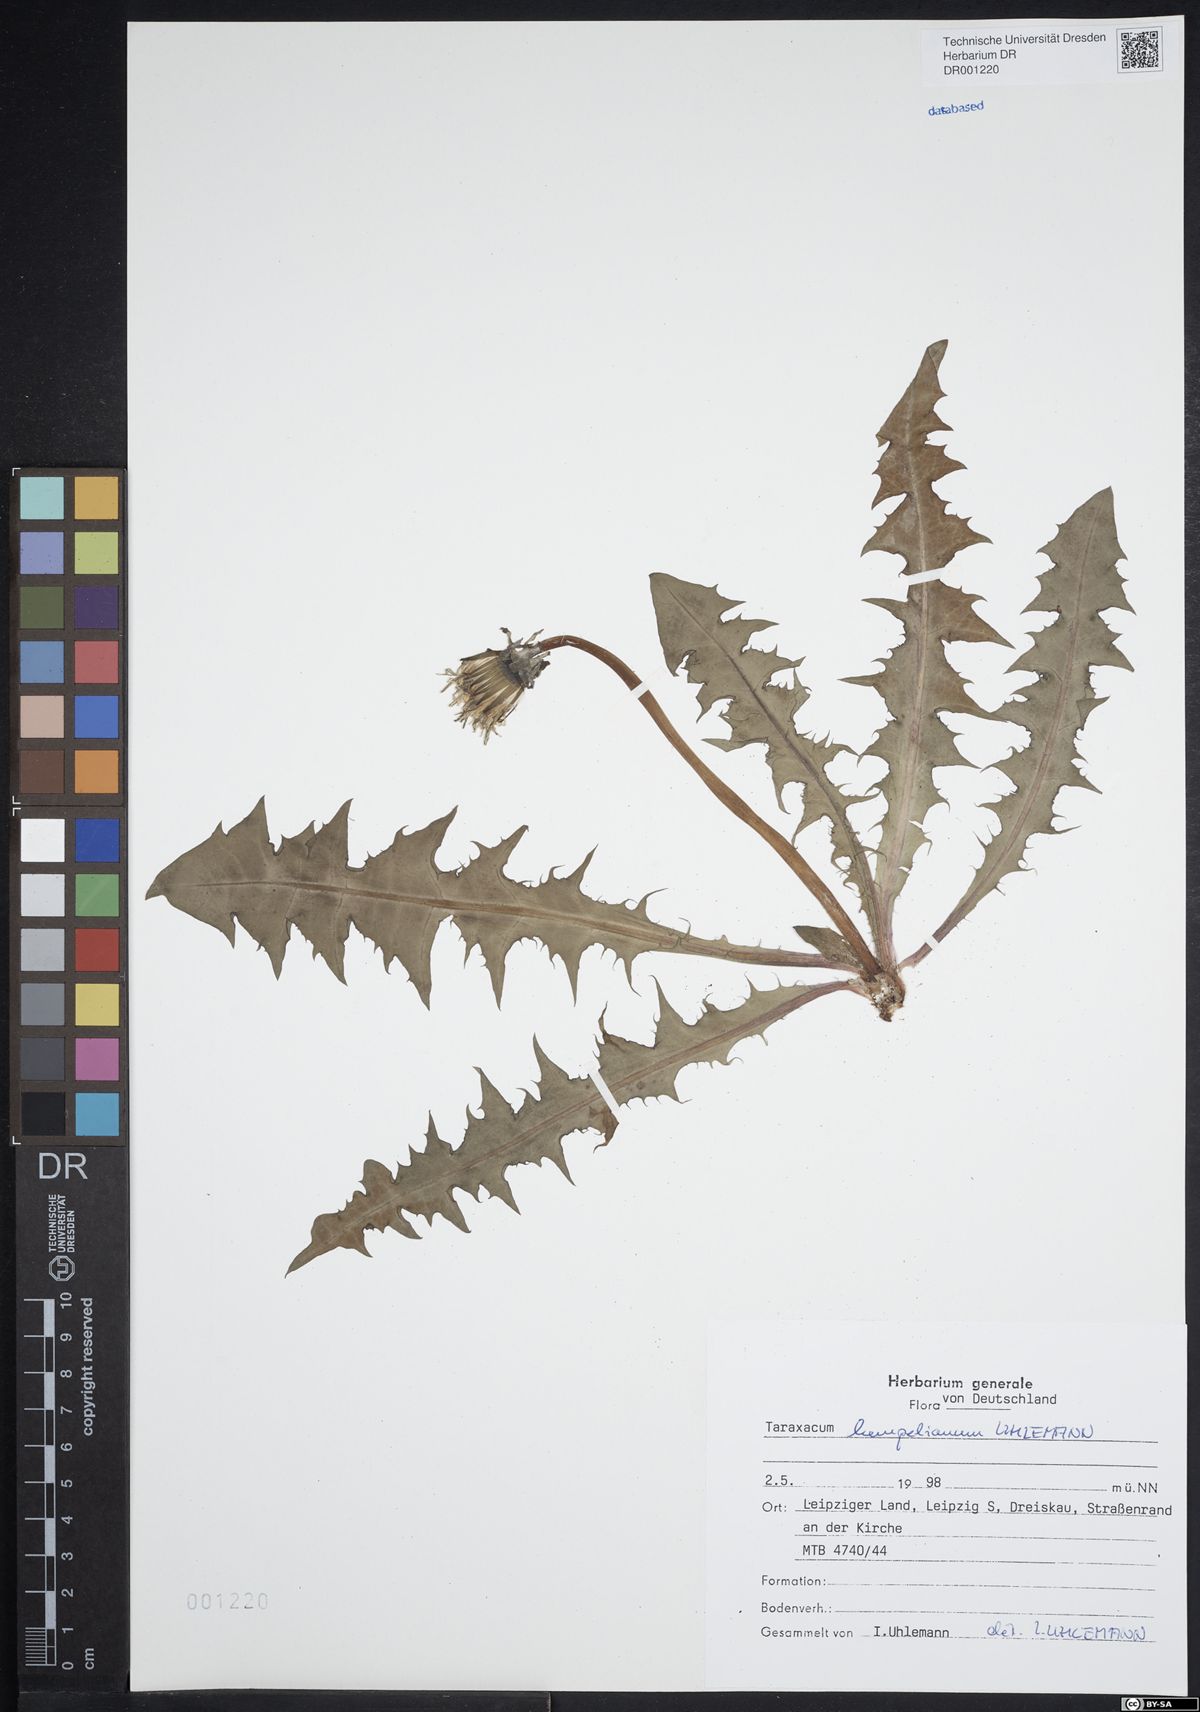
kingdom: Plantae
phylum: Tracheophyta
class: Magnoliopsida
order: Asterales
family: Asteraceae
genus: Taraxacum
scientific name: Taraxacum hempelianum
